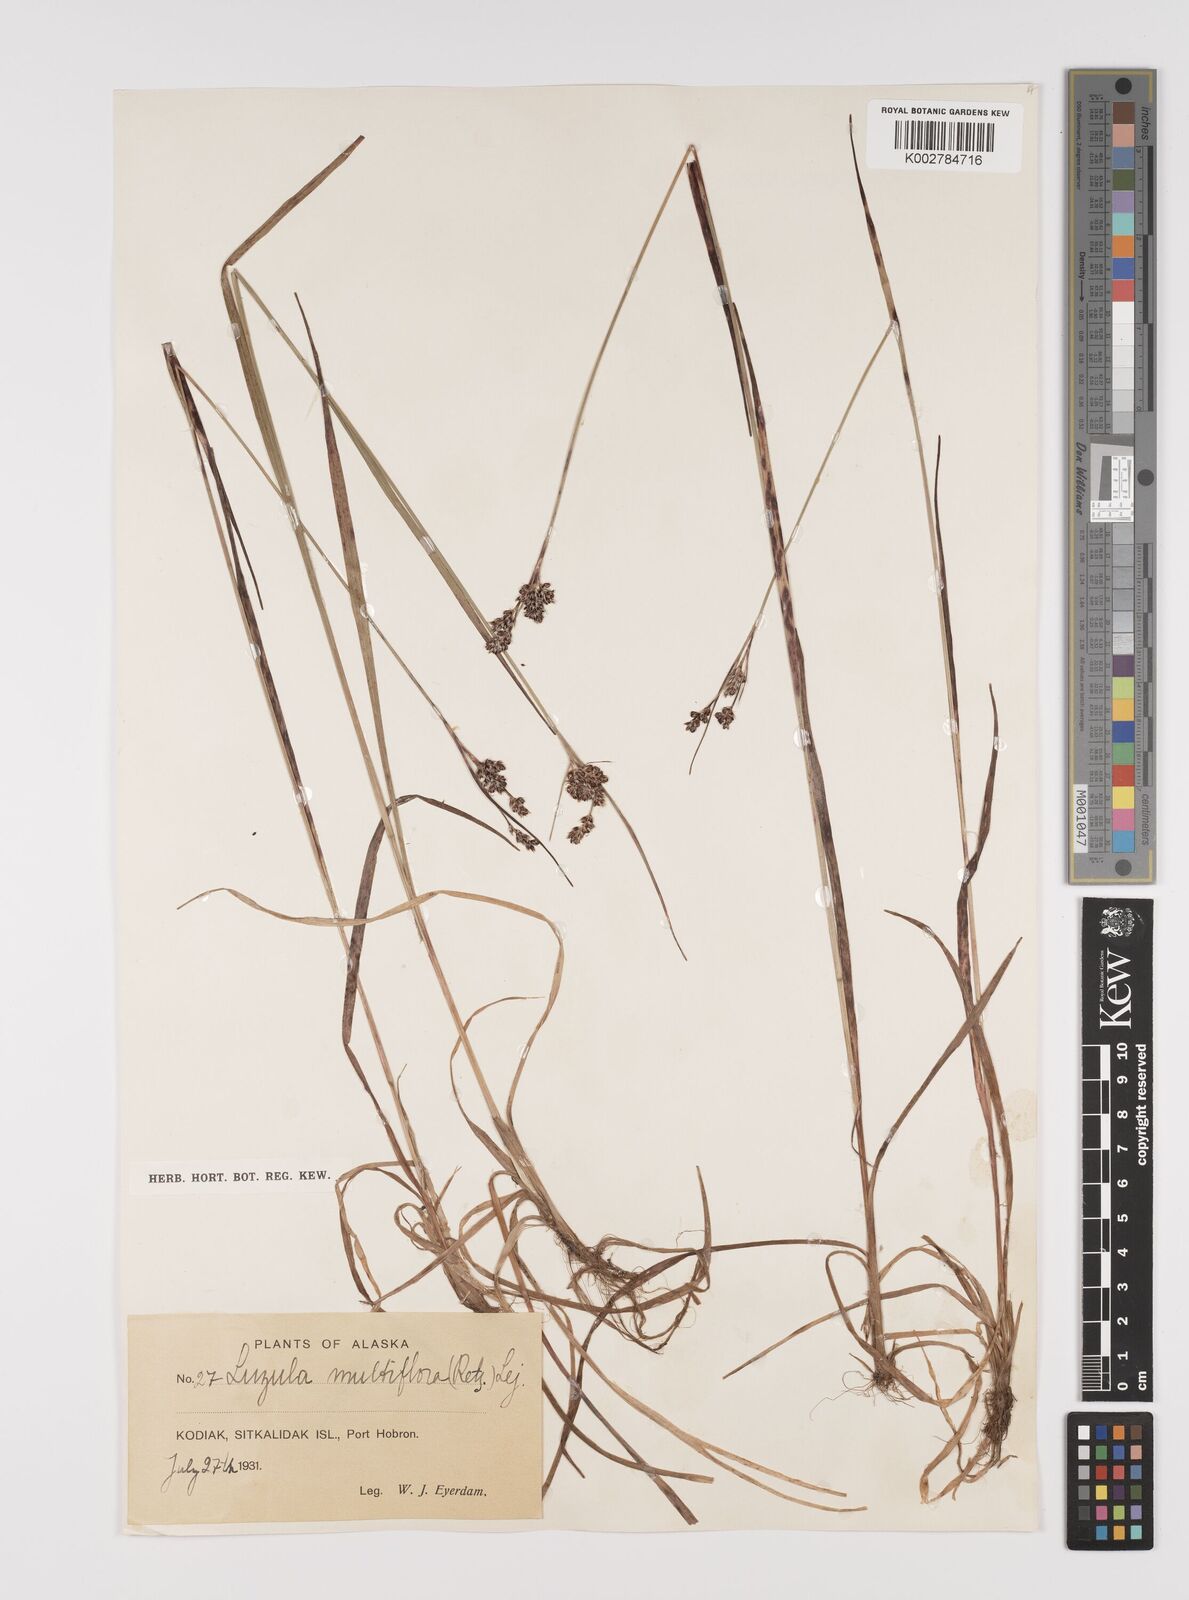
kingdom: Plantae
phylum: Tracheophyta
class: Liliopsida
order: Poales
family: Juncaceae
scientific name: Juncaceae
